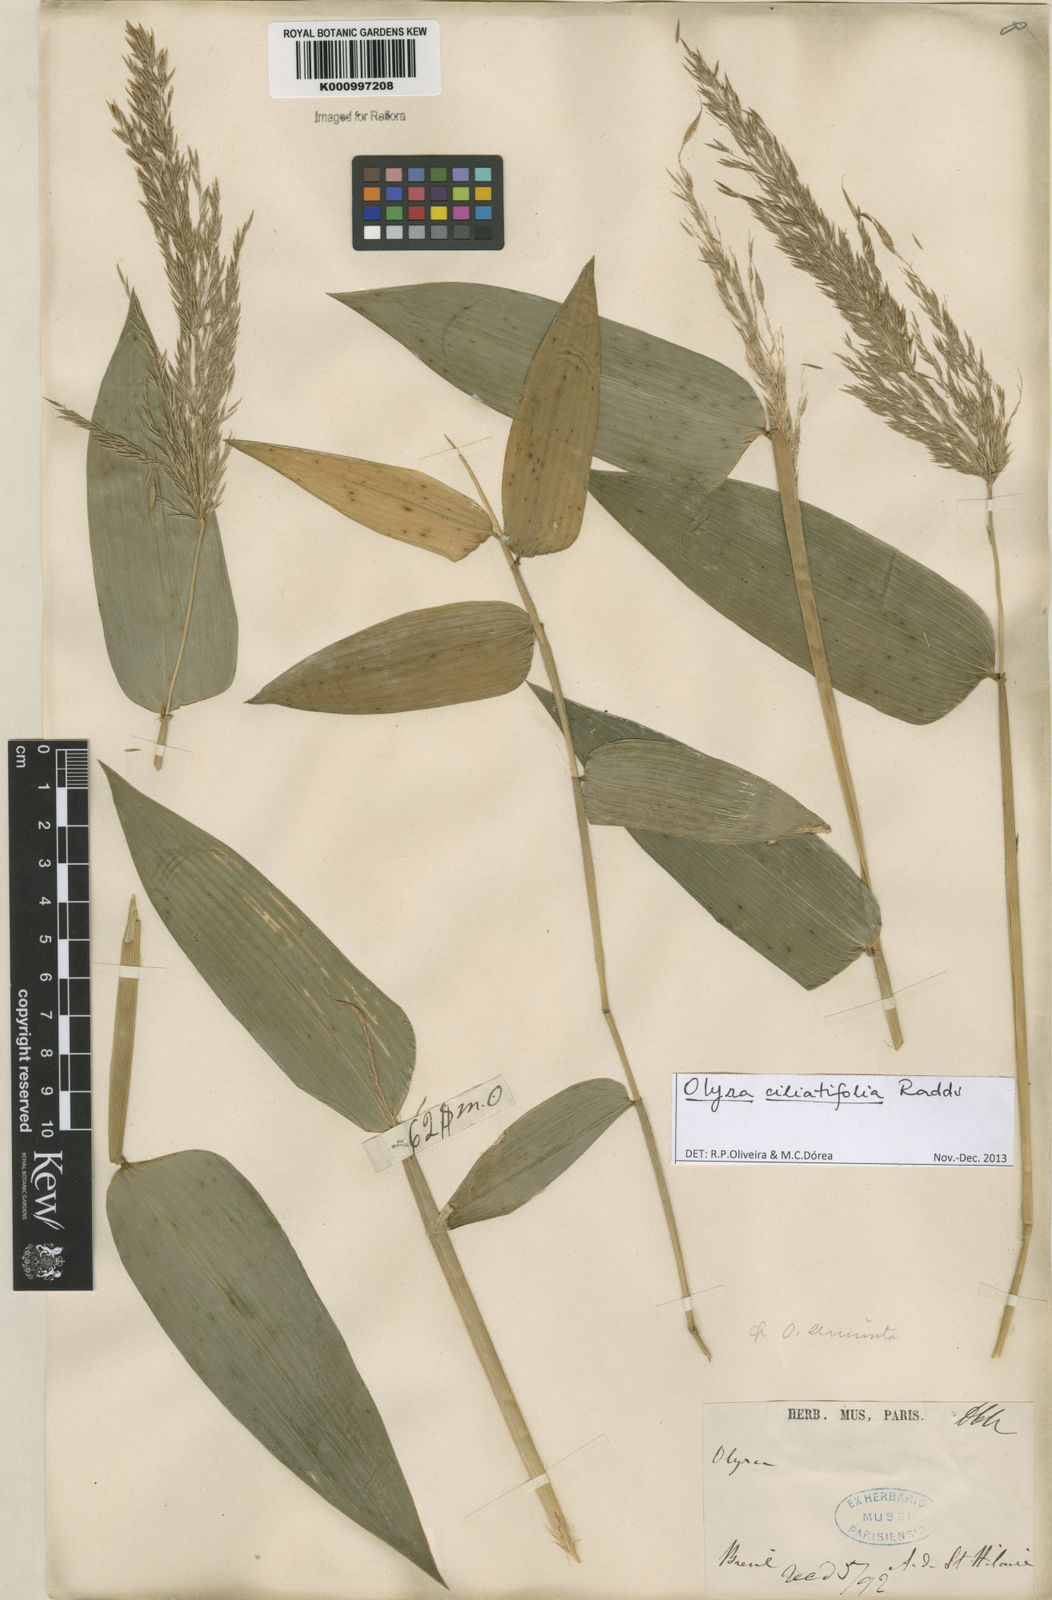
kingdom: Plantae
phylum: Tracheophyta
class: Liliopsida
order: Poales
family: Poaceae
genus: Olyra
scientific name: Olyra ciliatifolia
